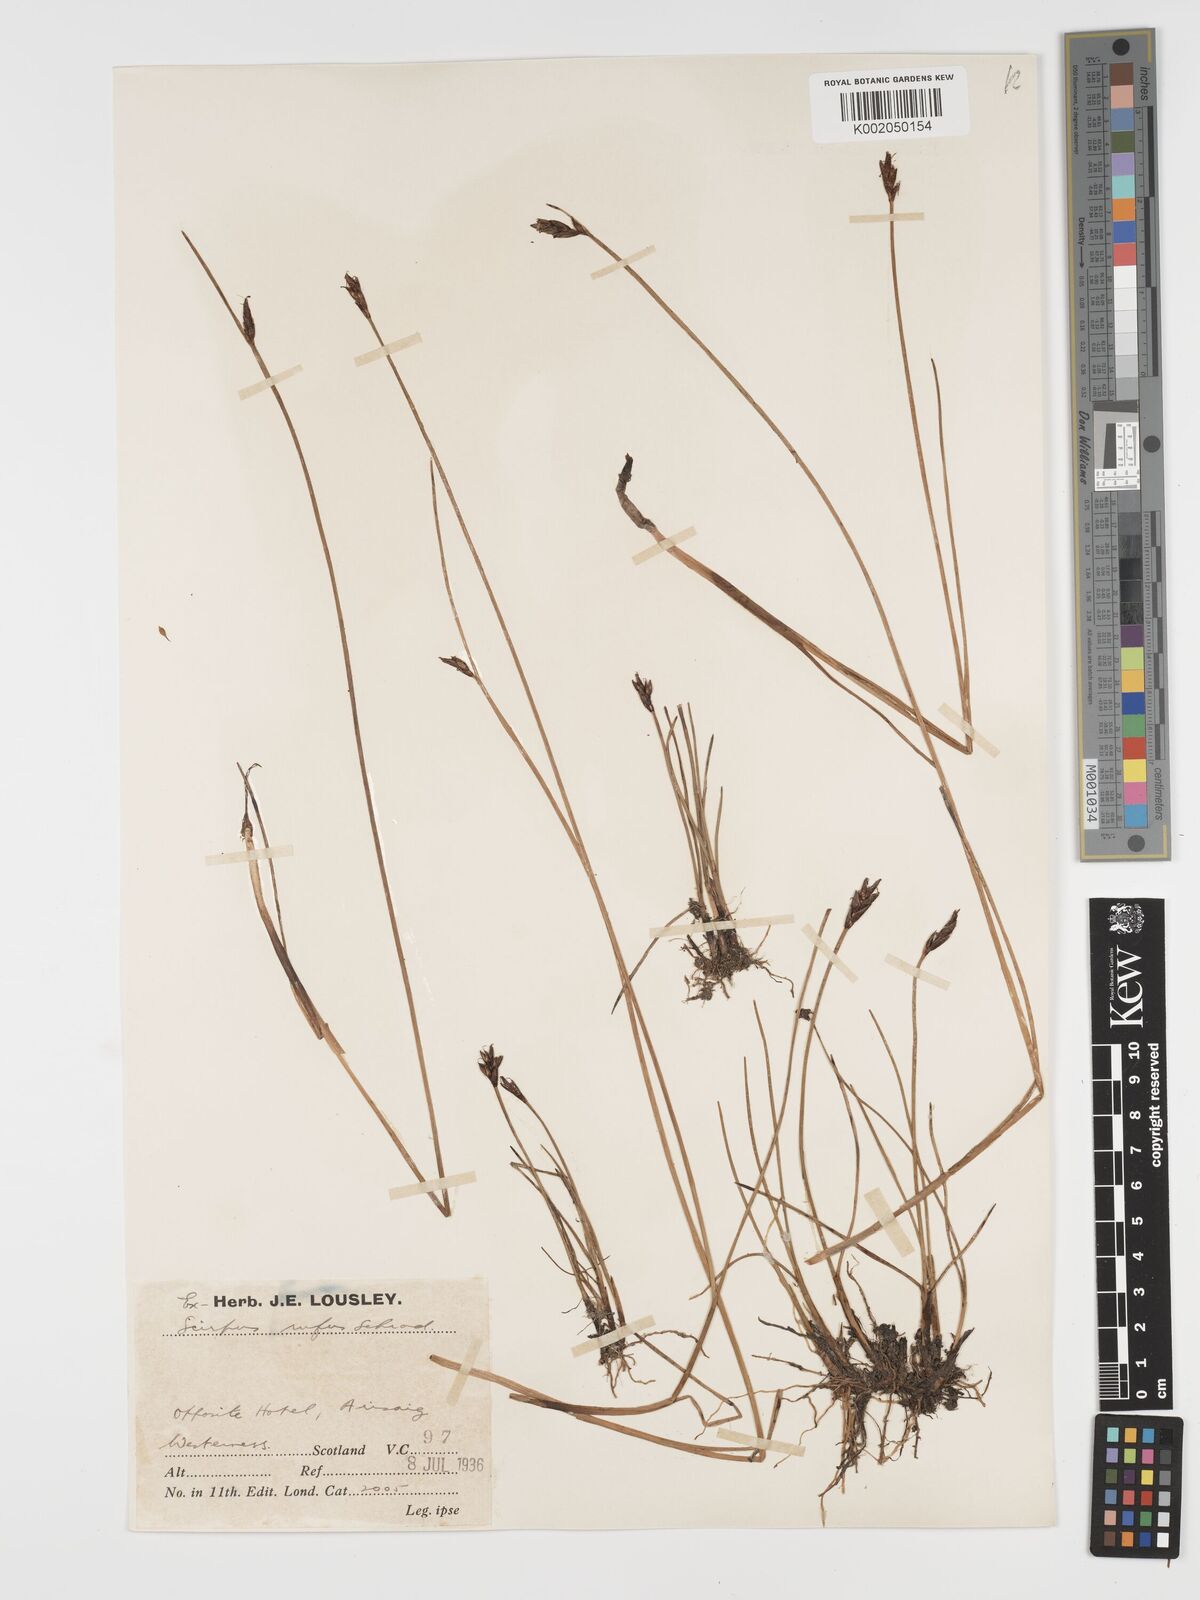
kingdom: Plantae
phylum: Tracheophyta
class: Liliopsida
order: Poales
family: Cyperaceae
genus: Blysmus
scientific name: Blysmus rufus
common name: Saltmarsh flat-sedge
